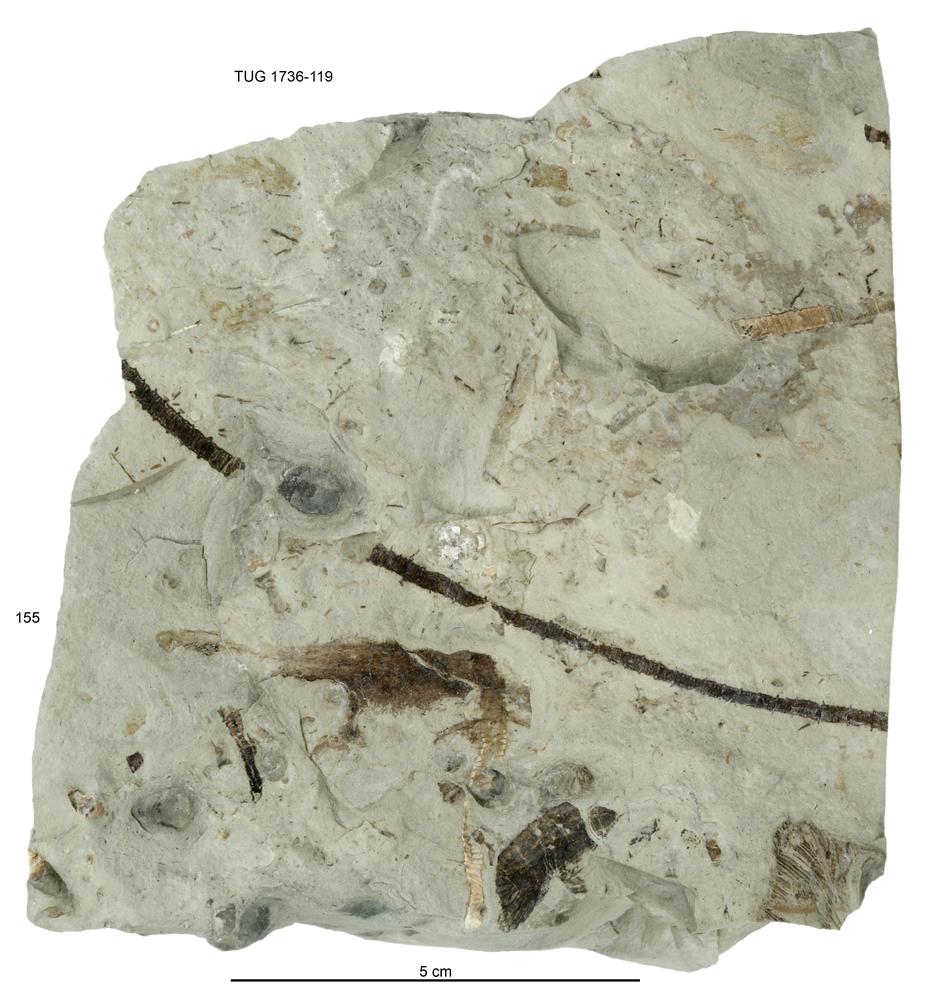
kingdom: Animalia
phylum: Echinodermata
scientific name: Echinodermata
